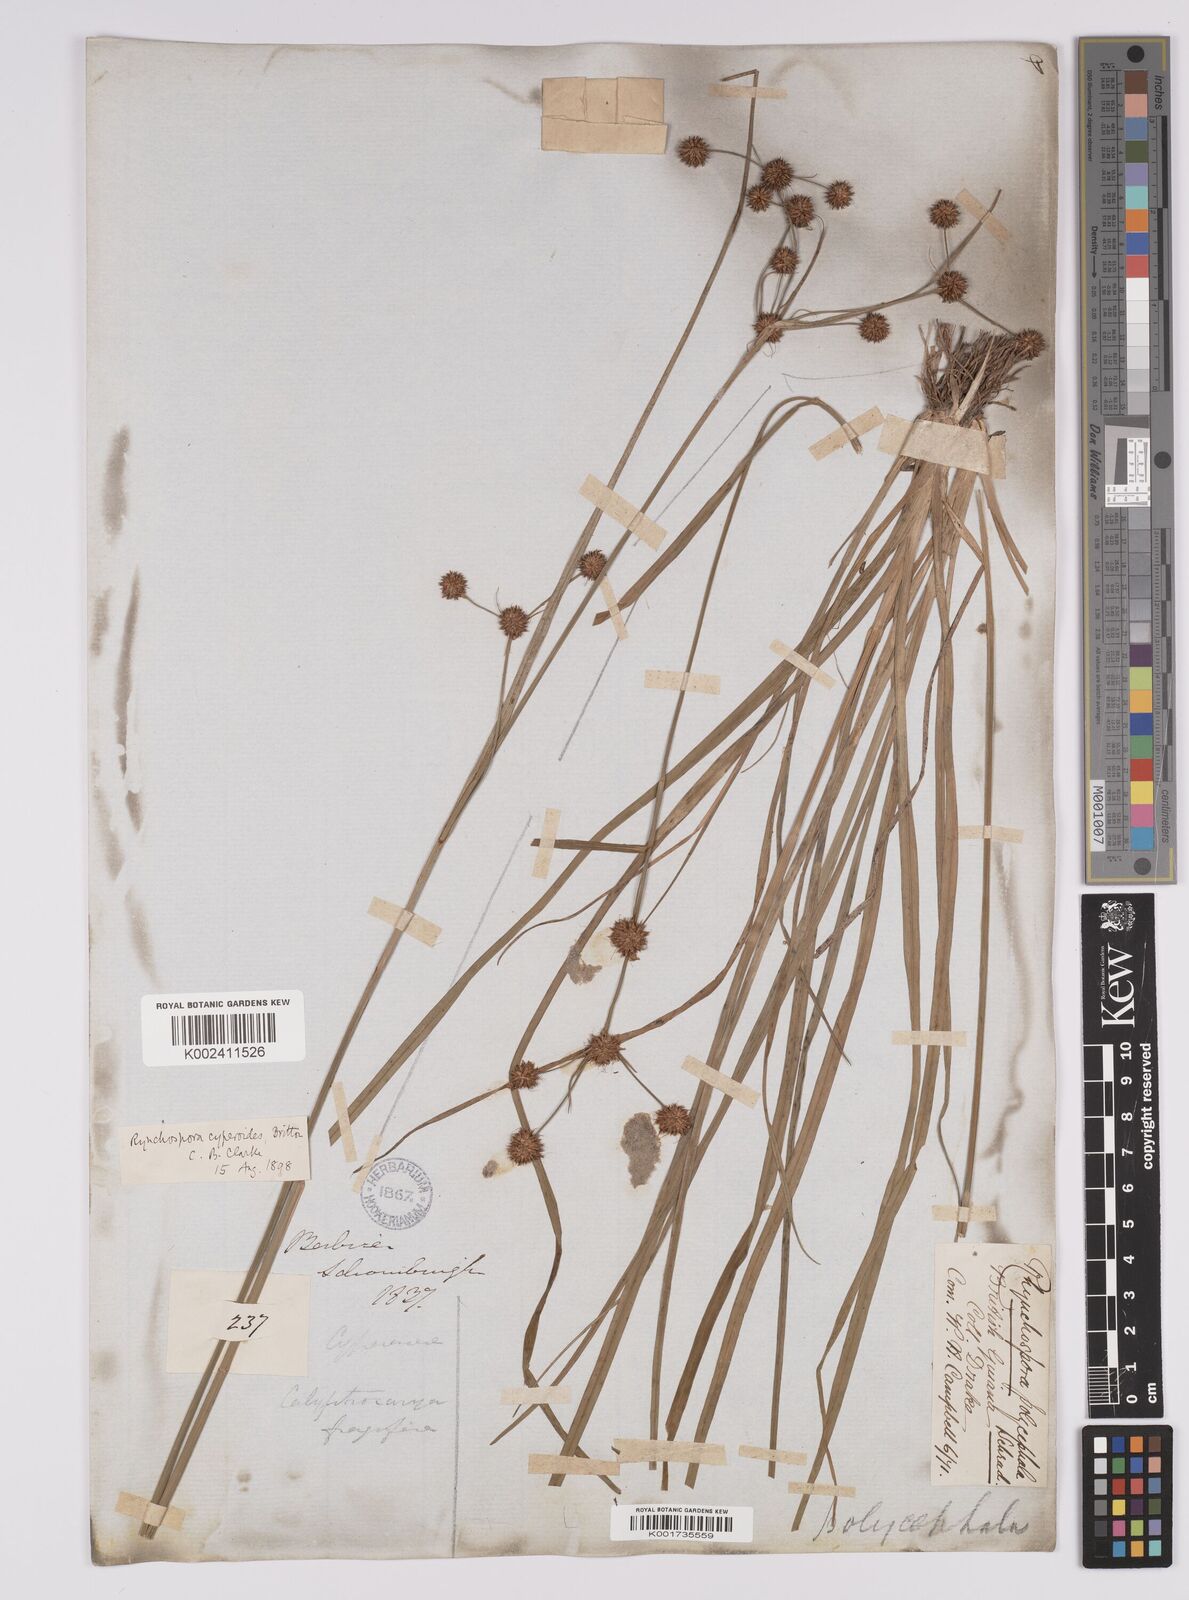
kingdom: Plantae
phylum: Tracheophyta
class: Liliopsida
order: Poales
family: Cyperaceae
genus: Rhynchospora
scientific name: Rhynchospora holoschoenoides
